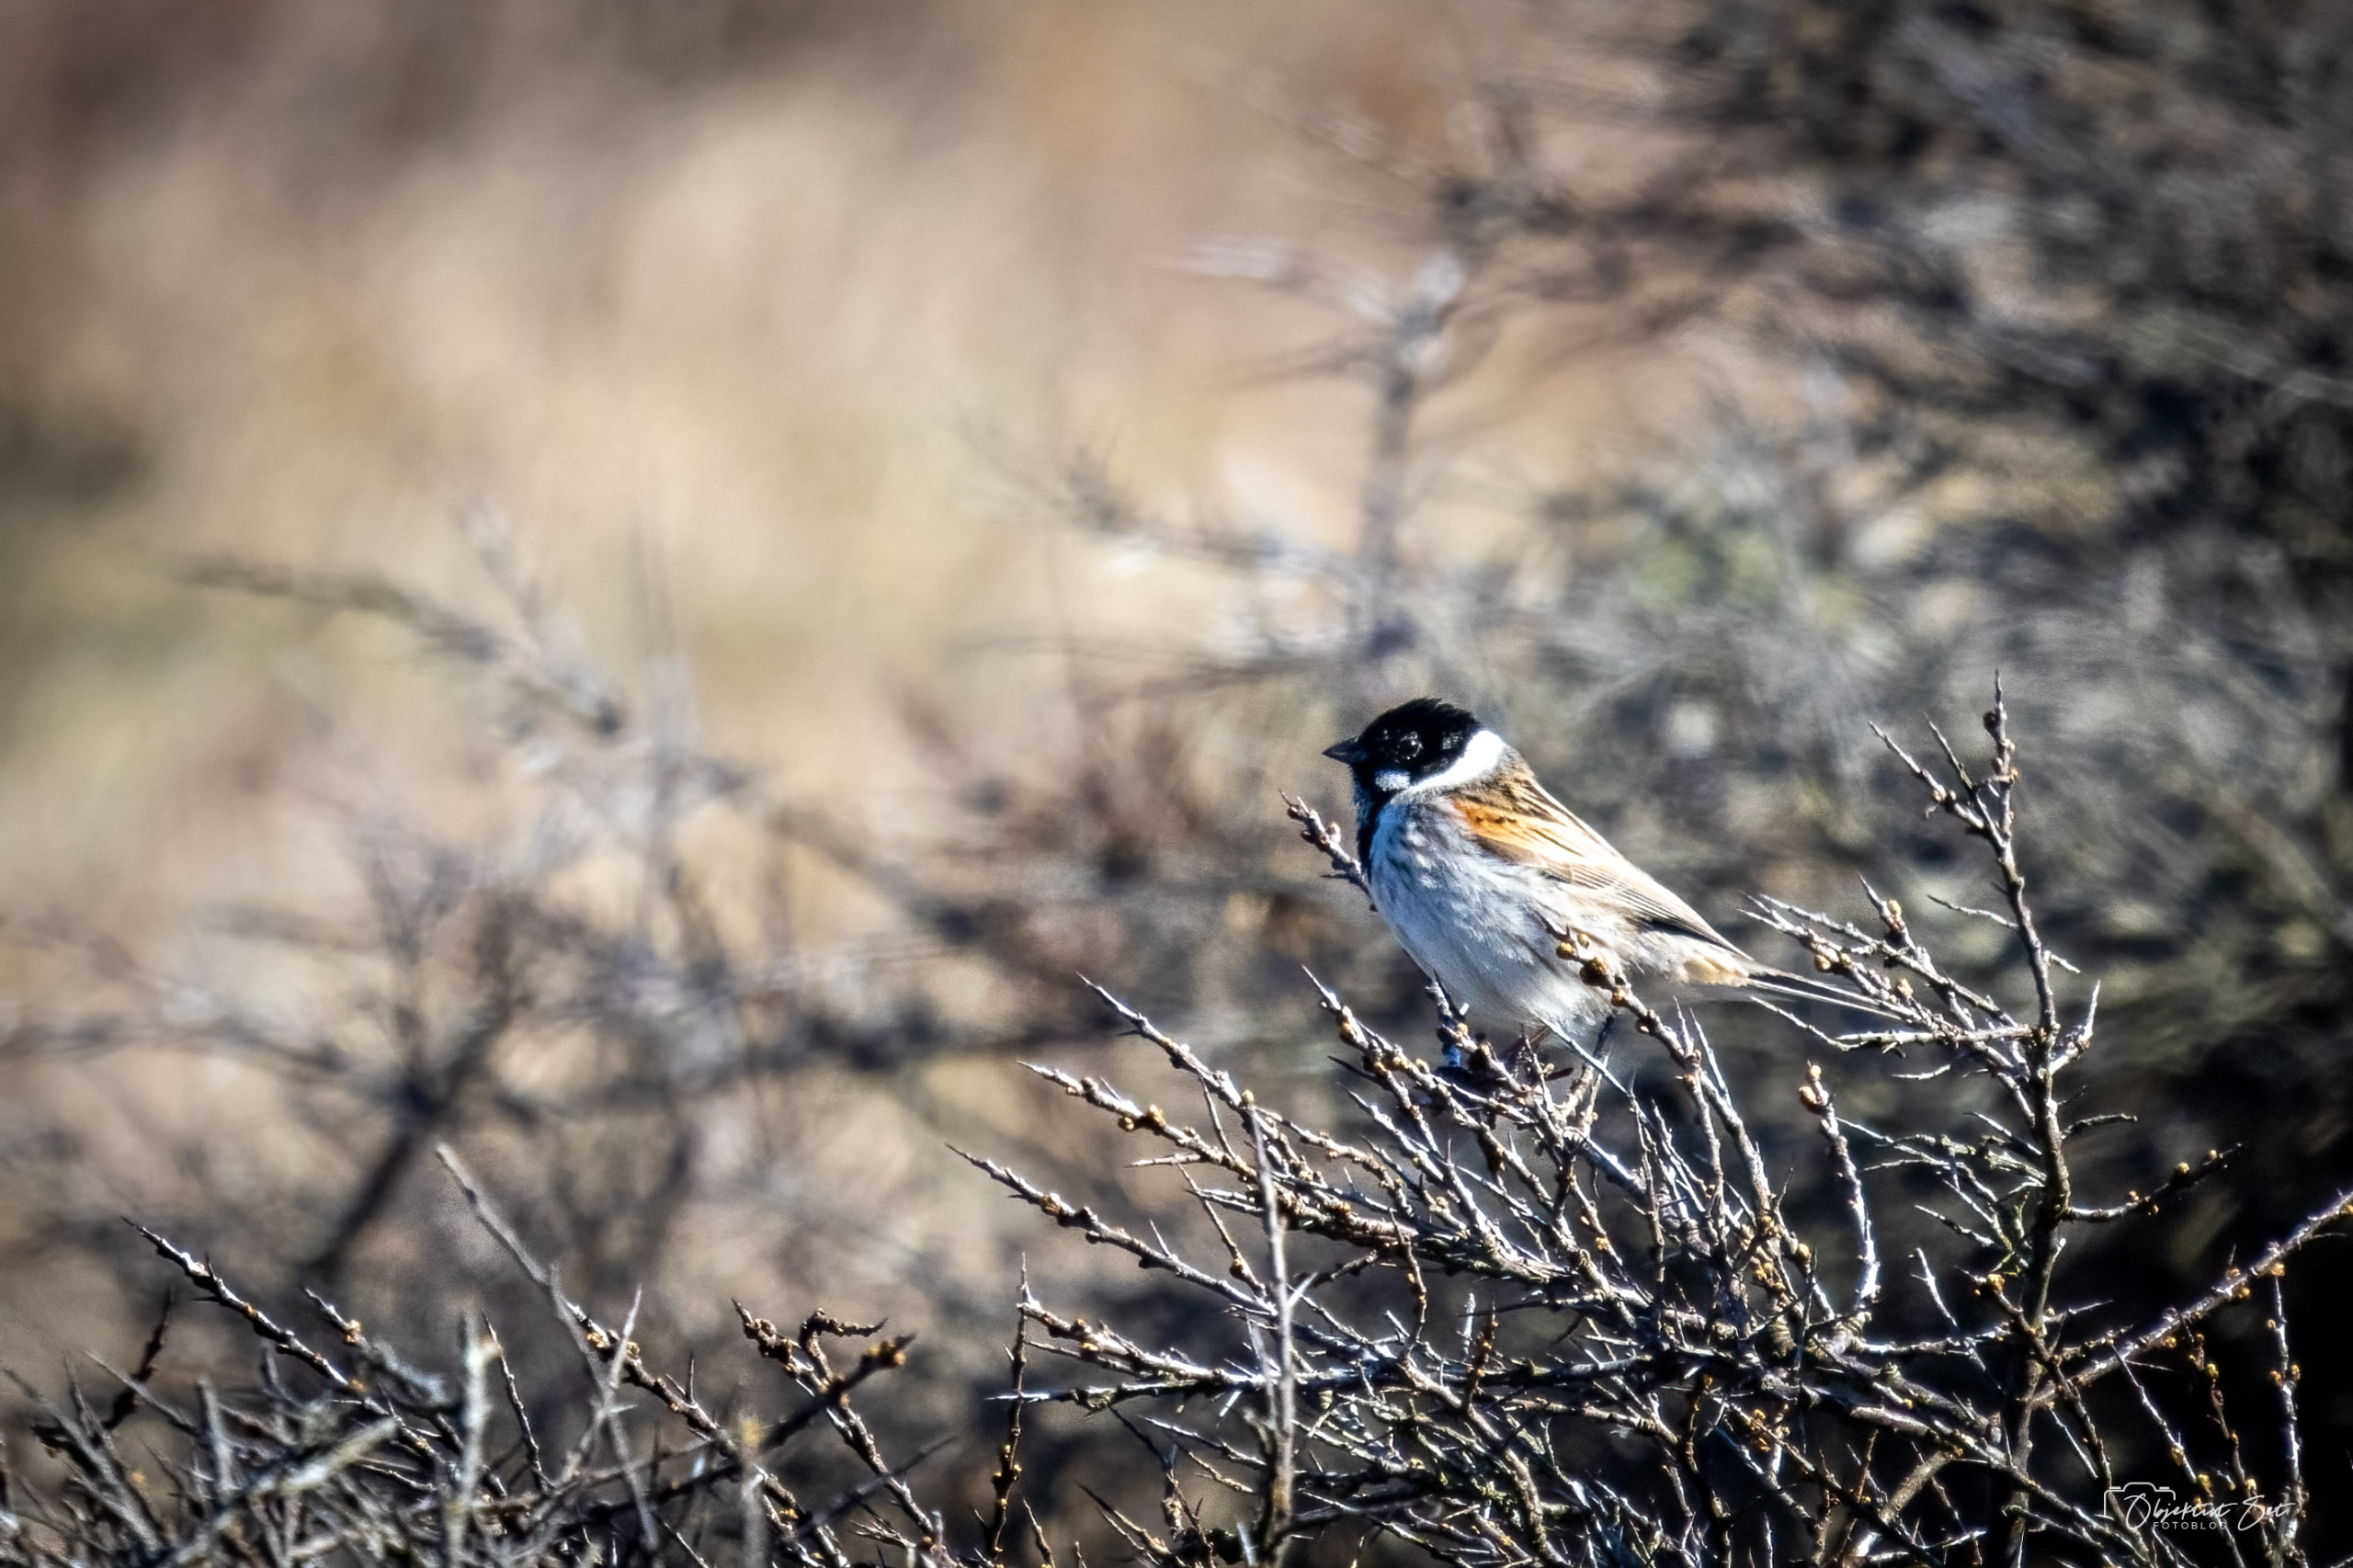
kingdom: Animalia
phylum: Chordata
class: Aves
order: Passeriformes
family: Emberizidae
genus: Emberiza
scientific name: Emberiza schoeniclus
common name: Rørspurv
